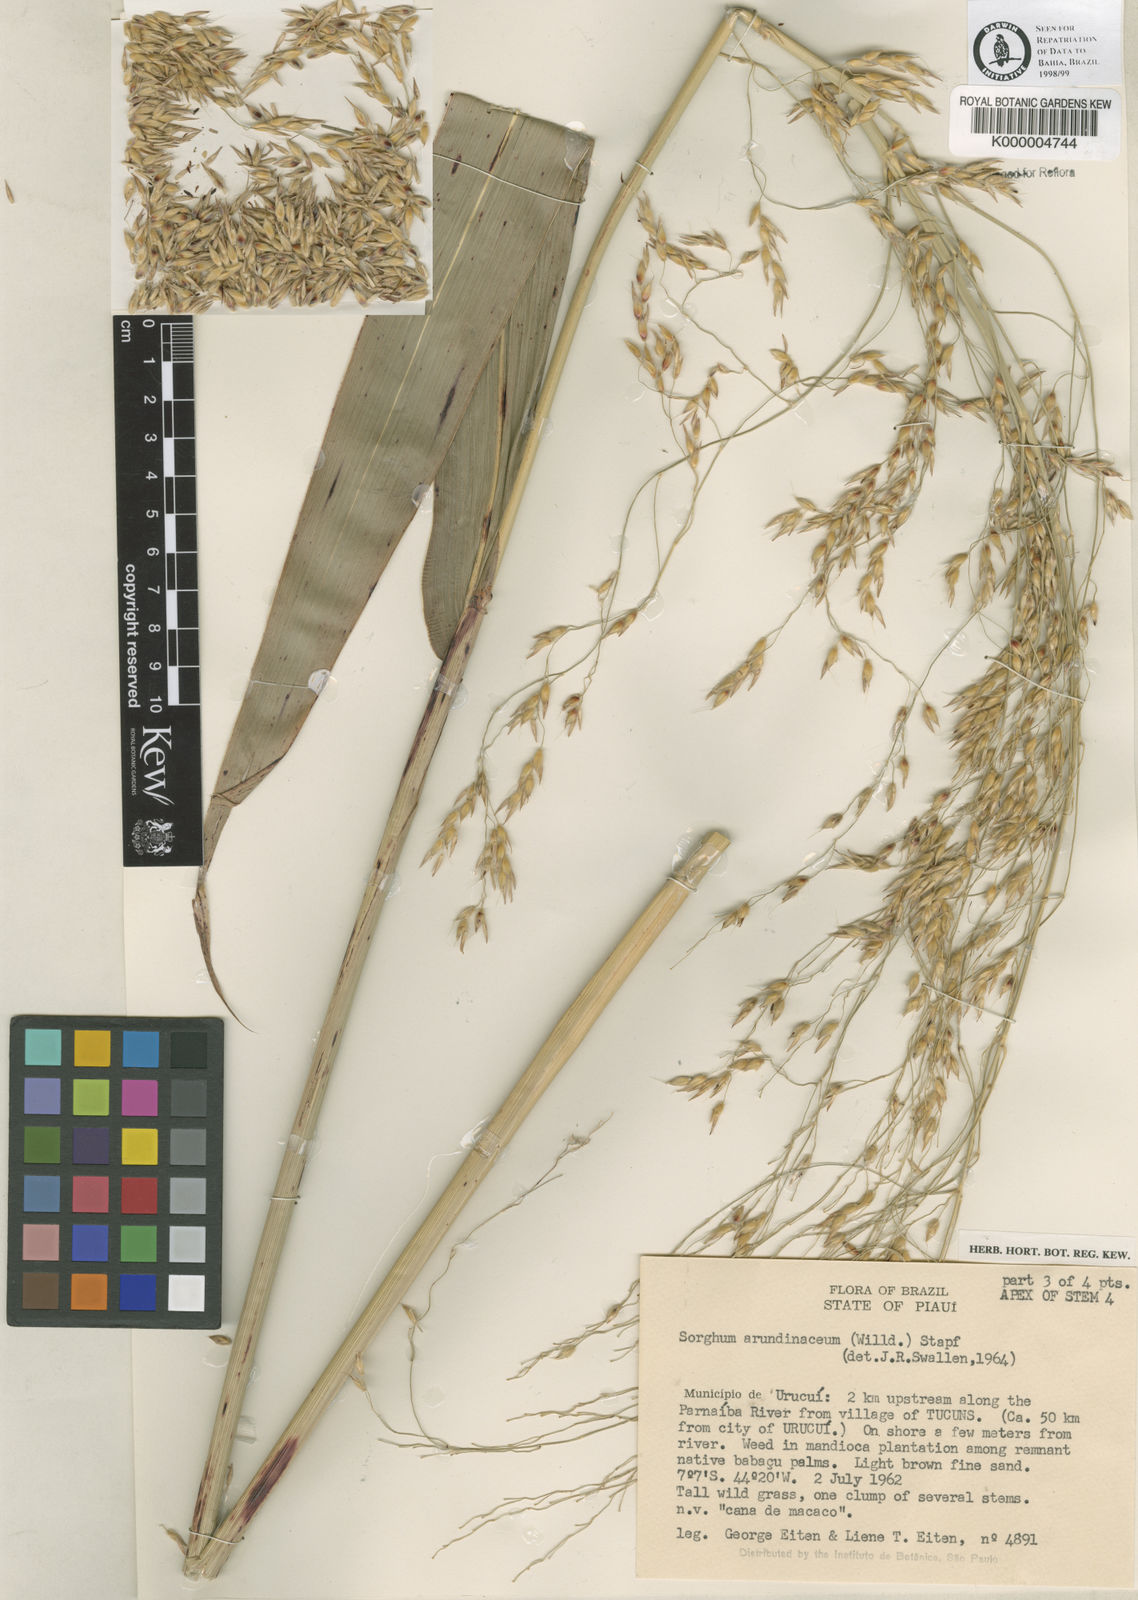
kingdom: Plantae
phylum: Tracheophyta
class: Liliopsida
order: Poales
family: Poaceae
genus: Sorghum
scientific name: Sorghum arundinaceum
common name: Sorghum
